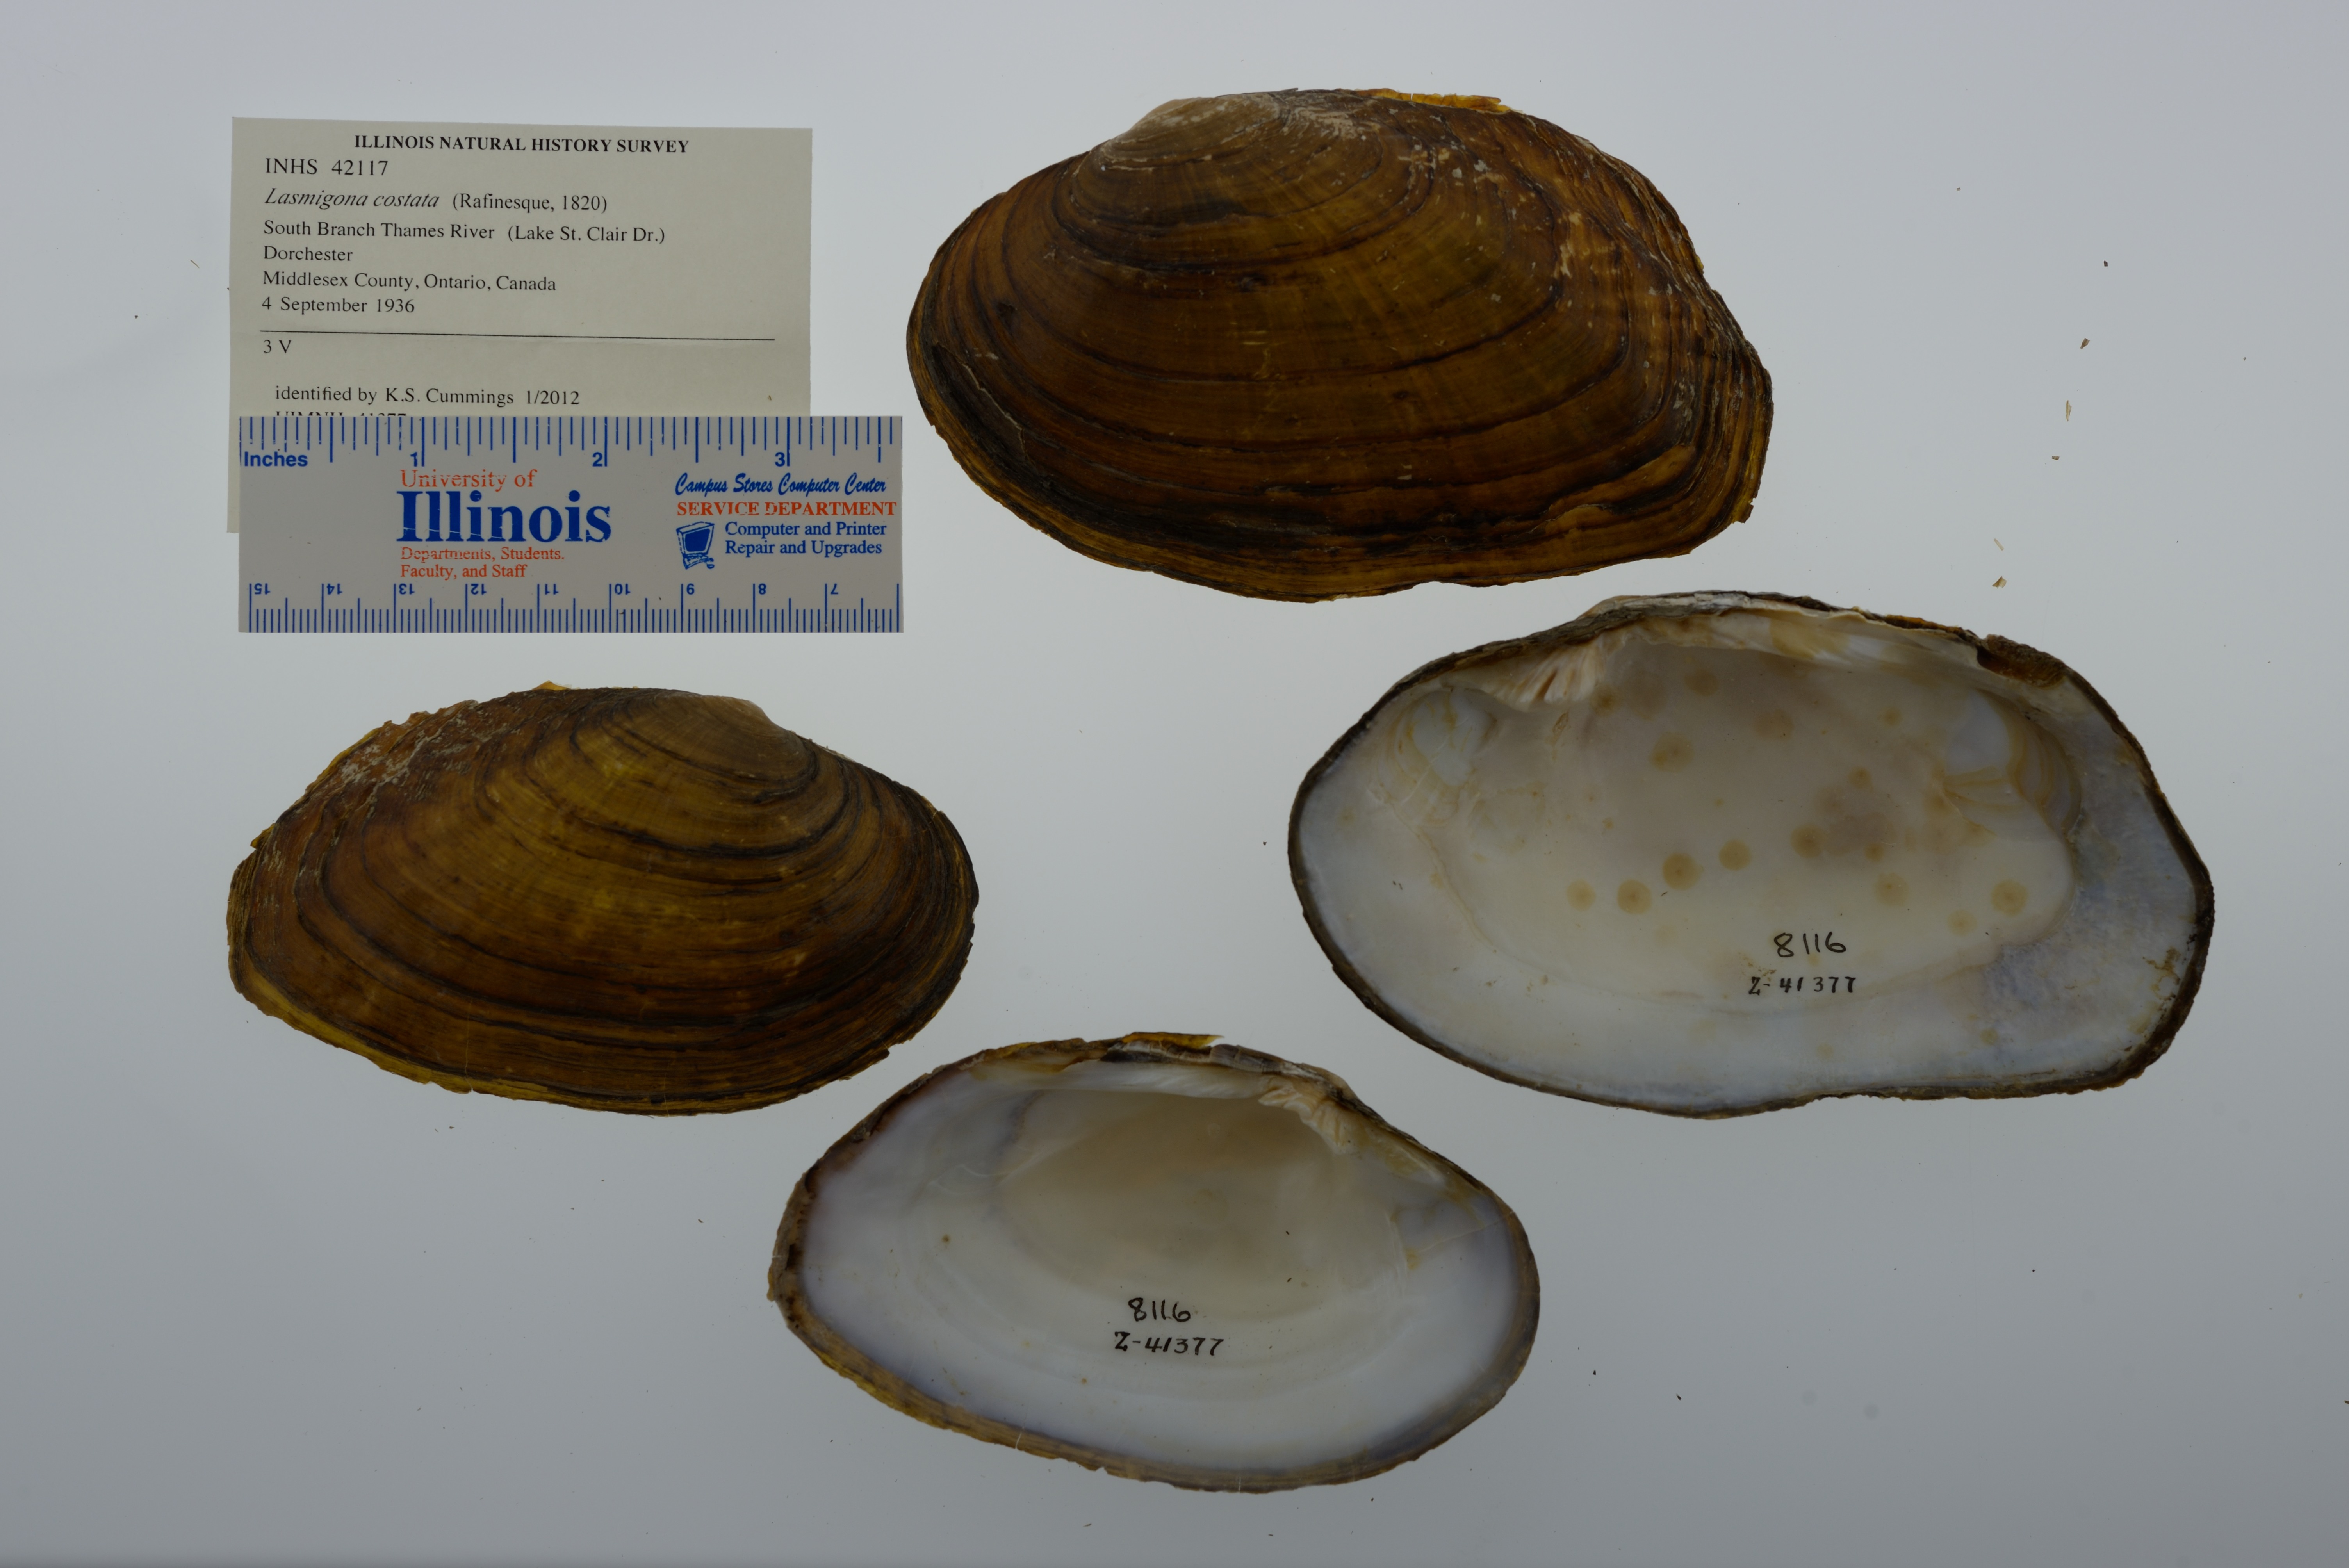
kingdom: Animalia
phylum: Mollusca
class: Bivalvia
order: Unionida
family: Unionidae
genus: Lasmigona
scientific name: Lasmigona costata
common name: Flutedshell
